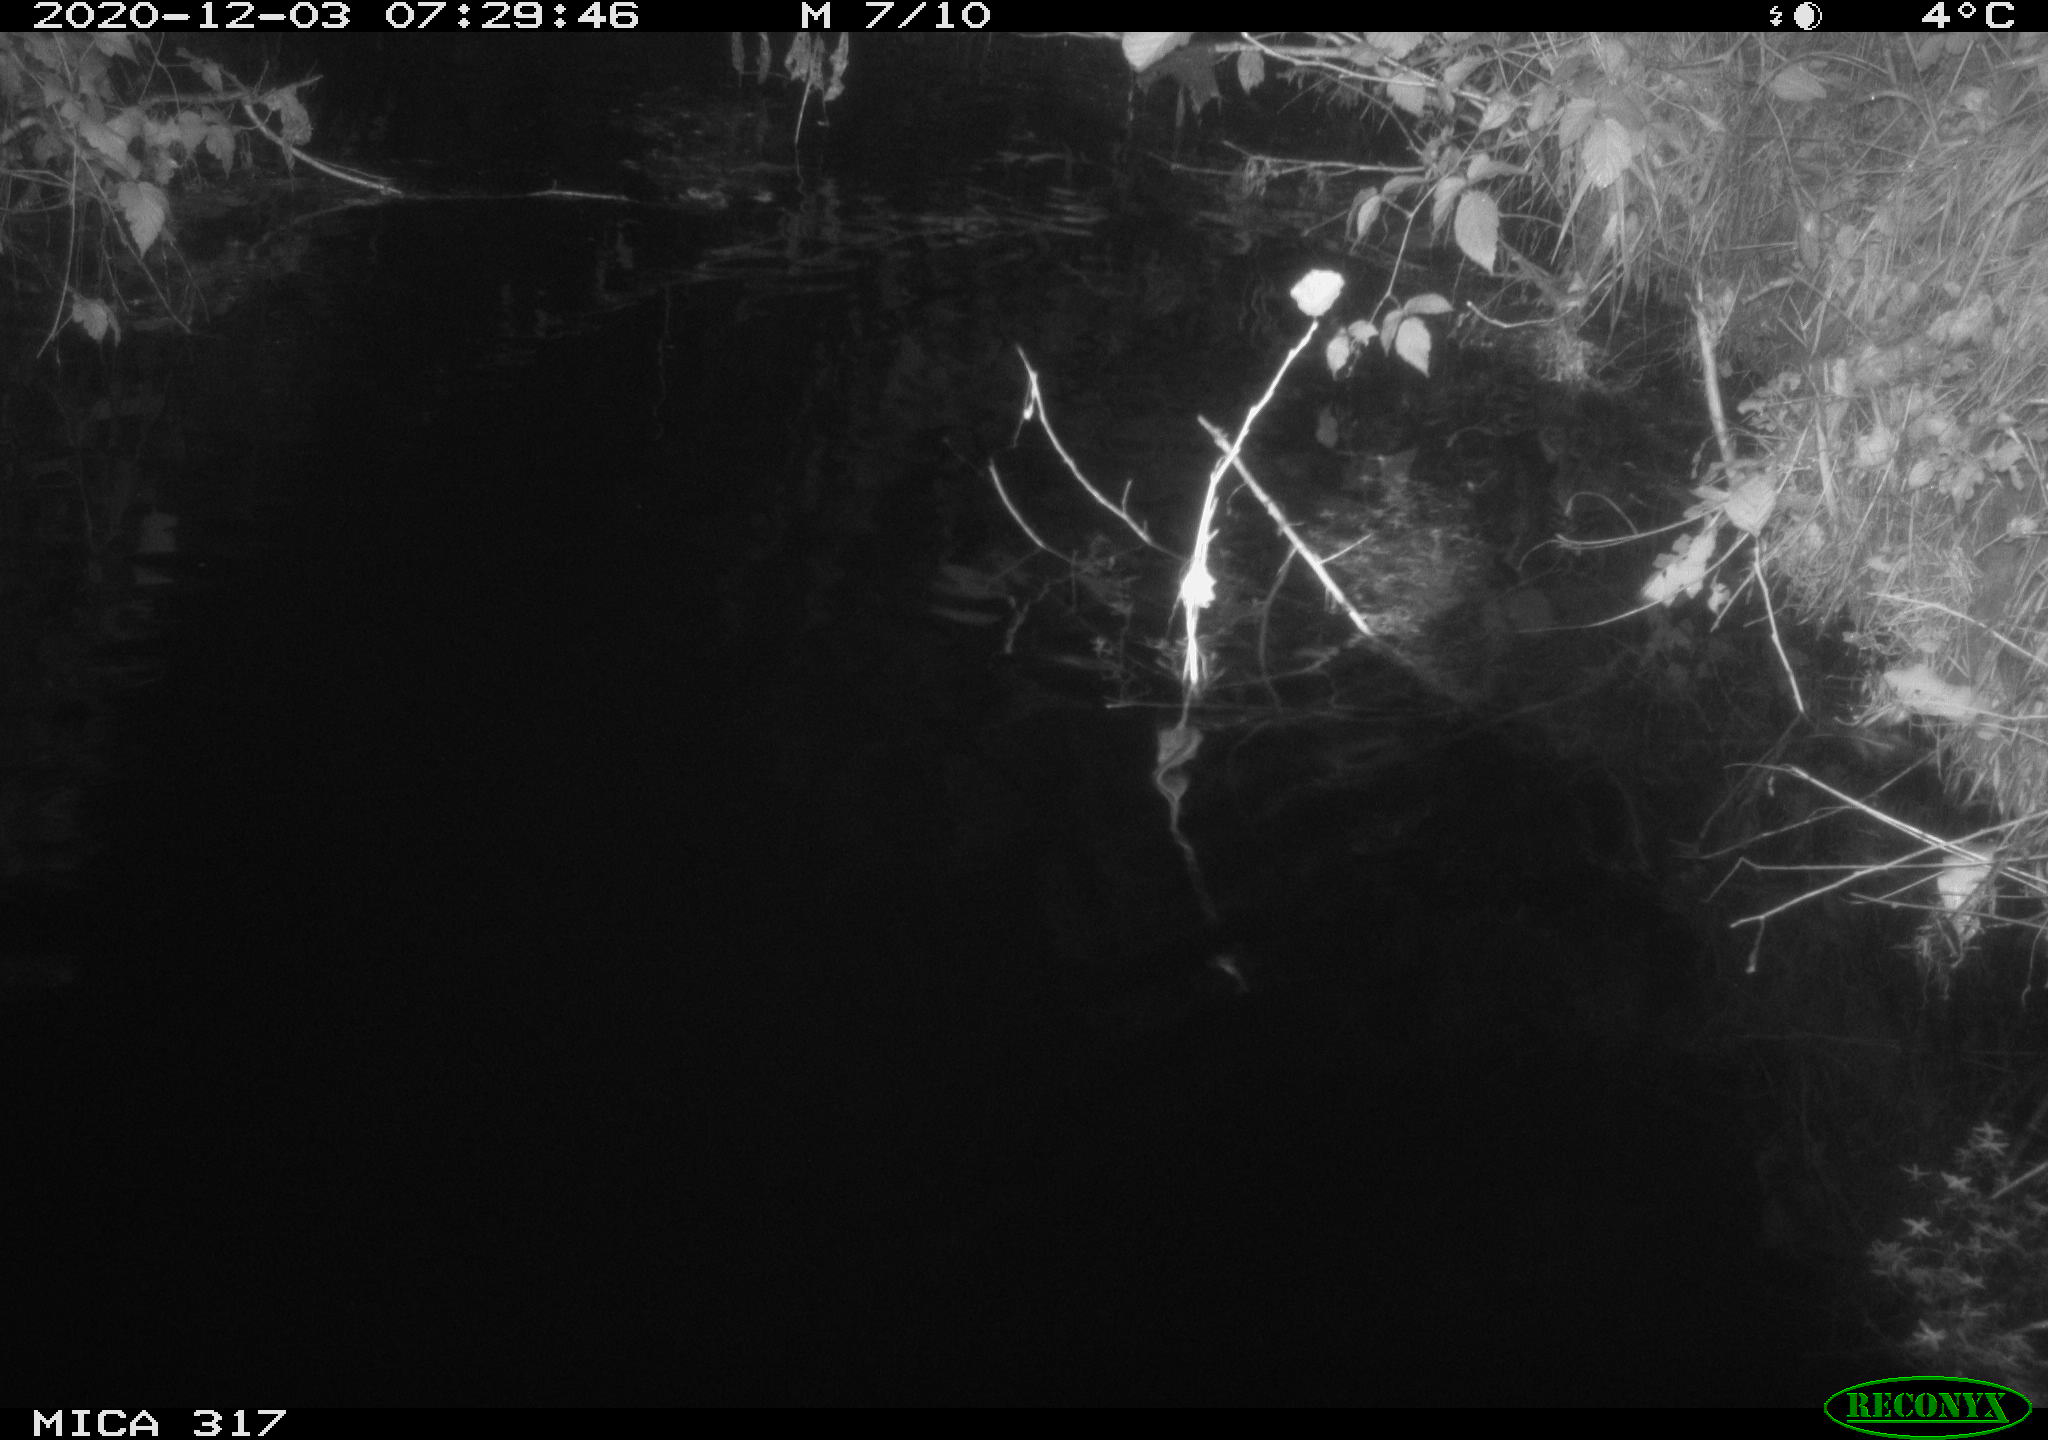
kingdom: Animalia
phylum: Chordata
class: Mammalia
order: Rodentia
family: Muridae
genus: Rattus
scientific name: Rattus norvegicus
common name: Brown rat
